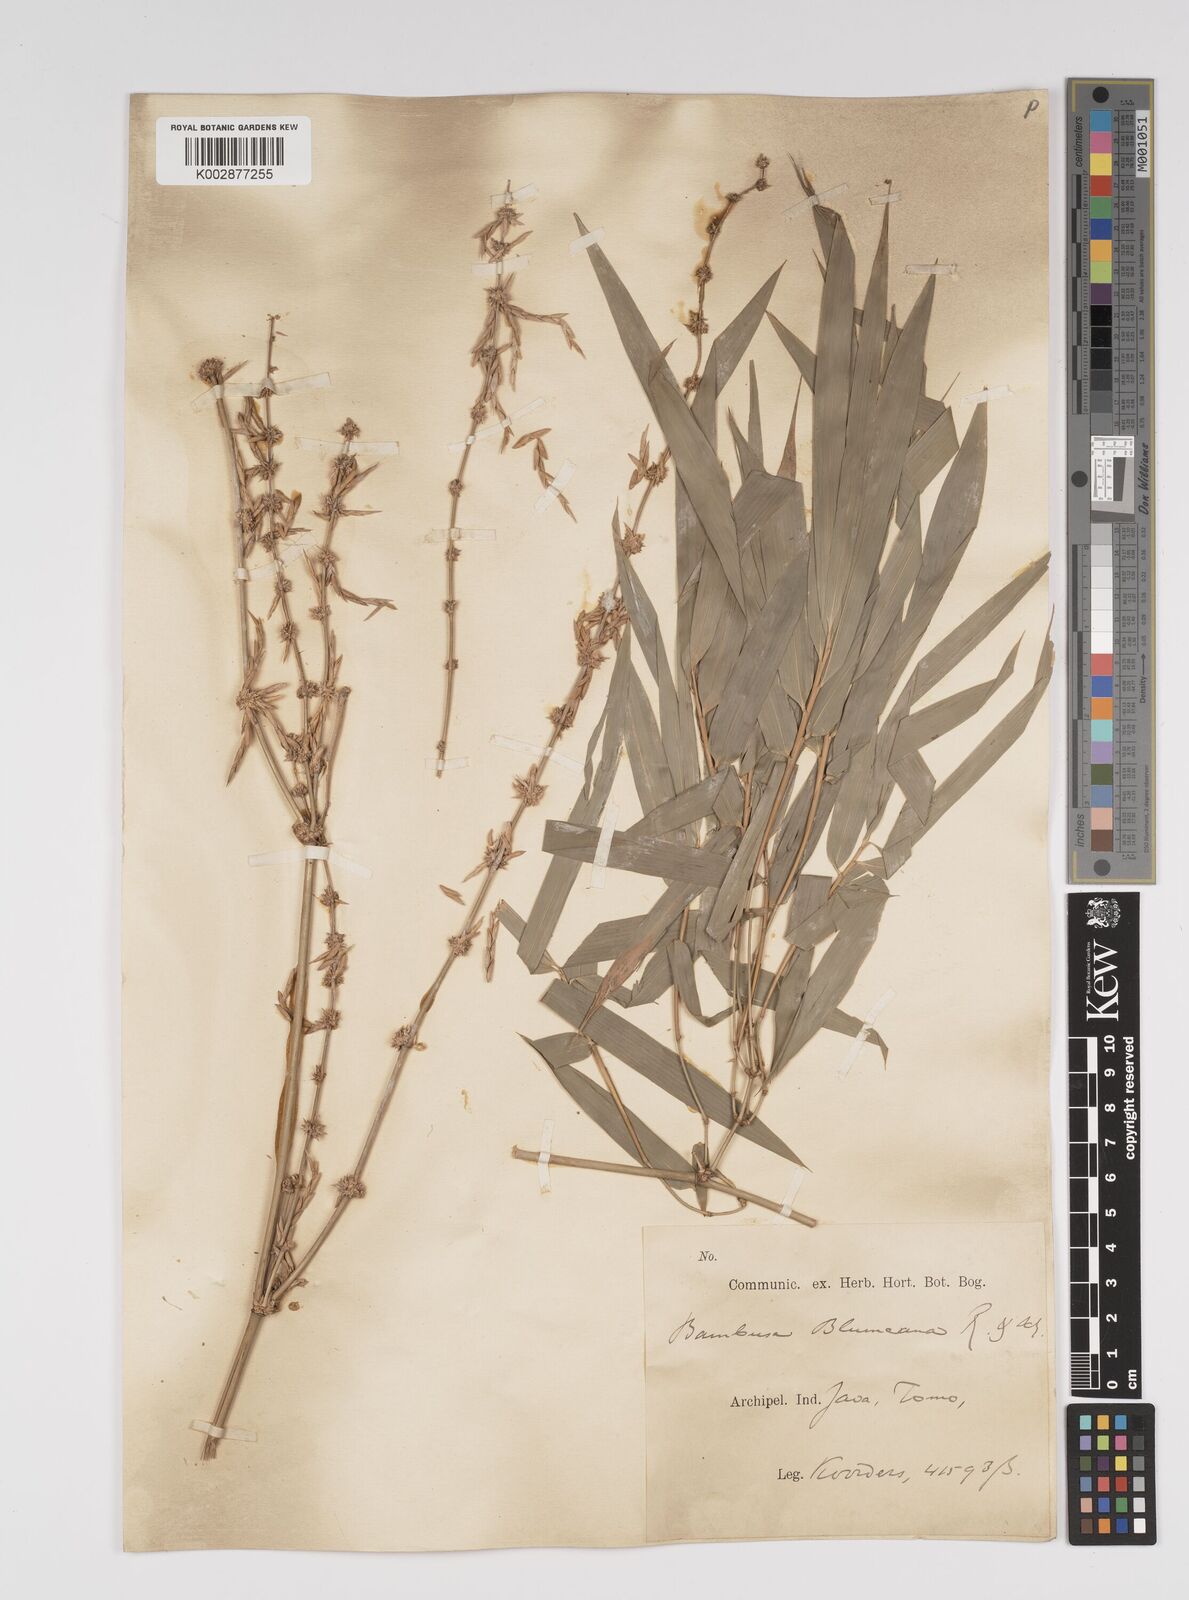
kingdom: Plantae
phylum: Tracheophyta
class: Liliopsida
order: Poales
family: Poaceae
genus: Bambusa
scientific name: Bambusa spinosa
